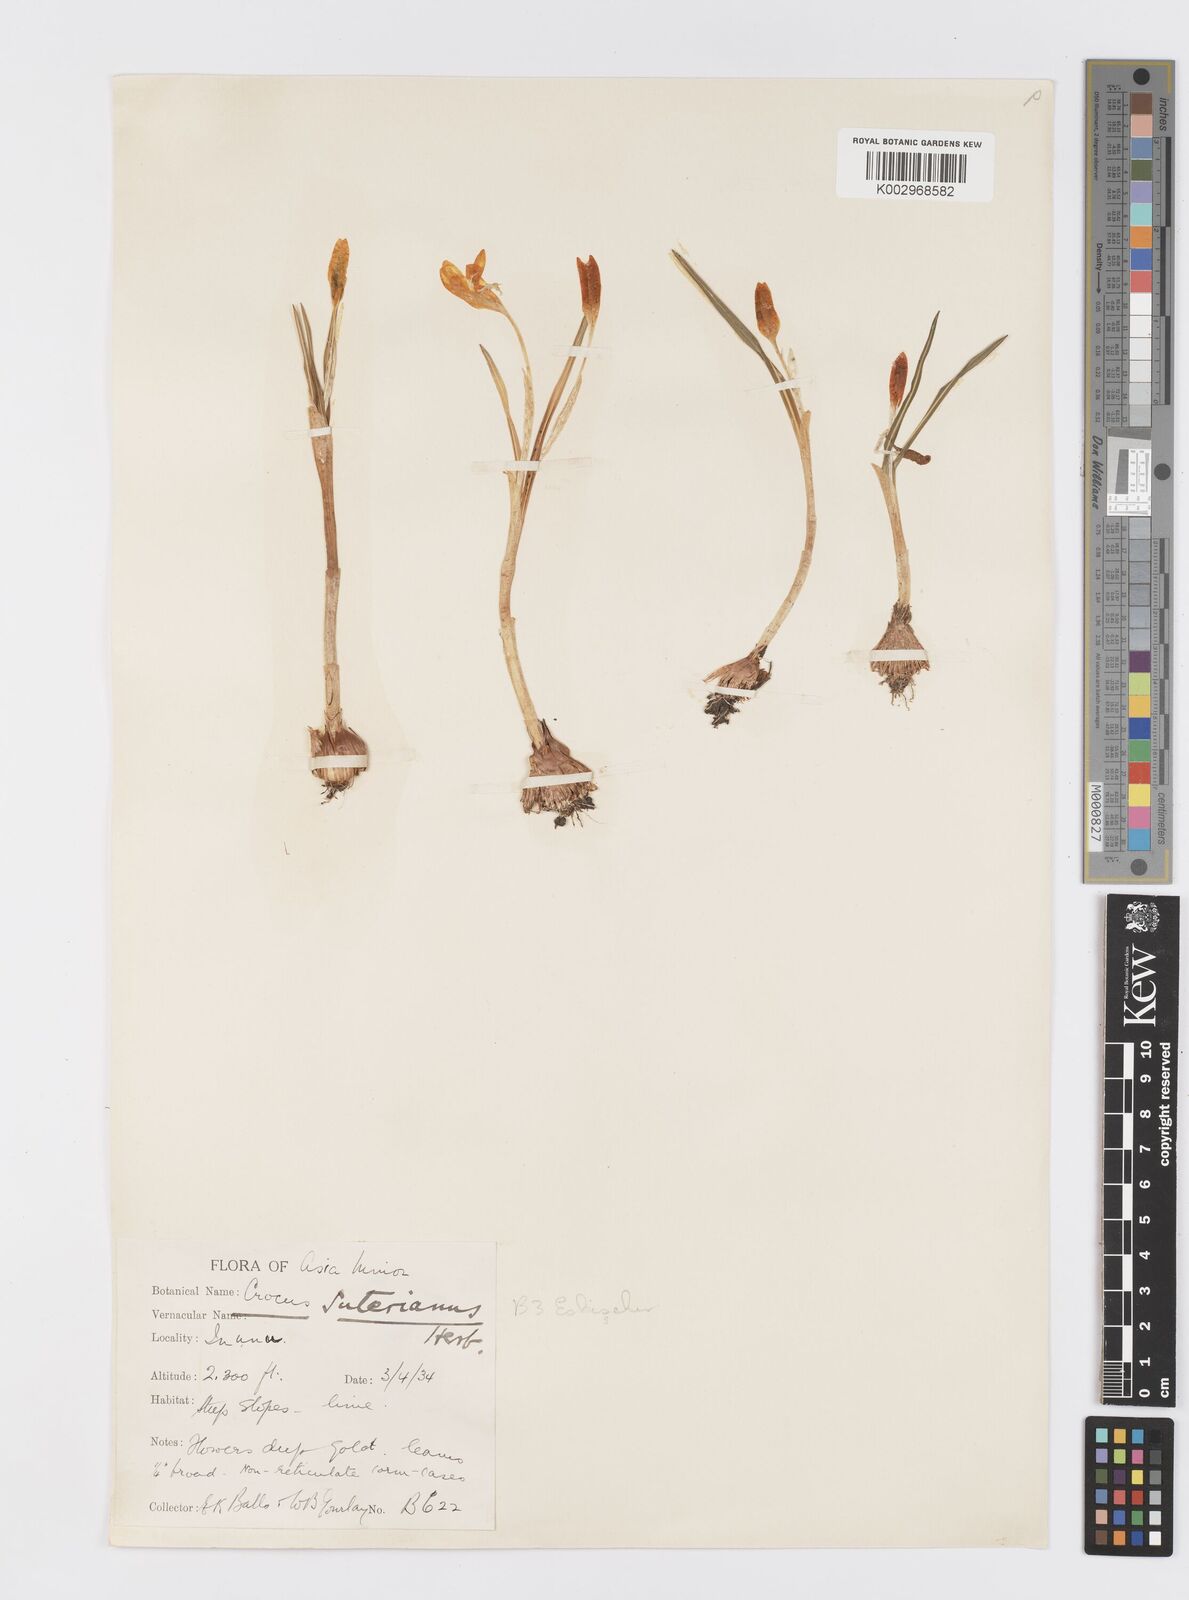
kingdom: Plantae
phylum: Tracheophyta
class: Liliopsida
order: Asparagales
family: Iridaceae
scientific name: Iridaceae
